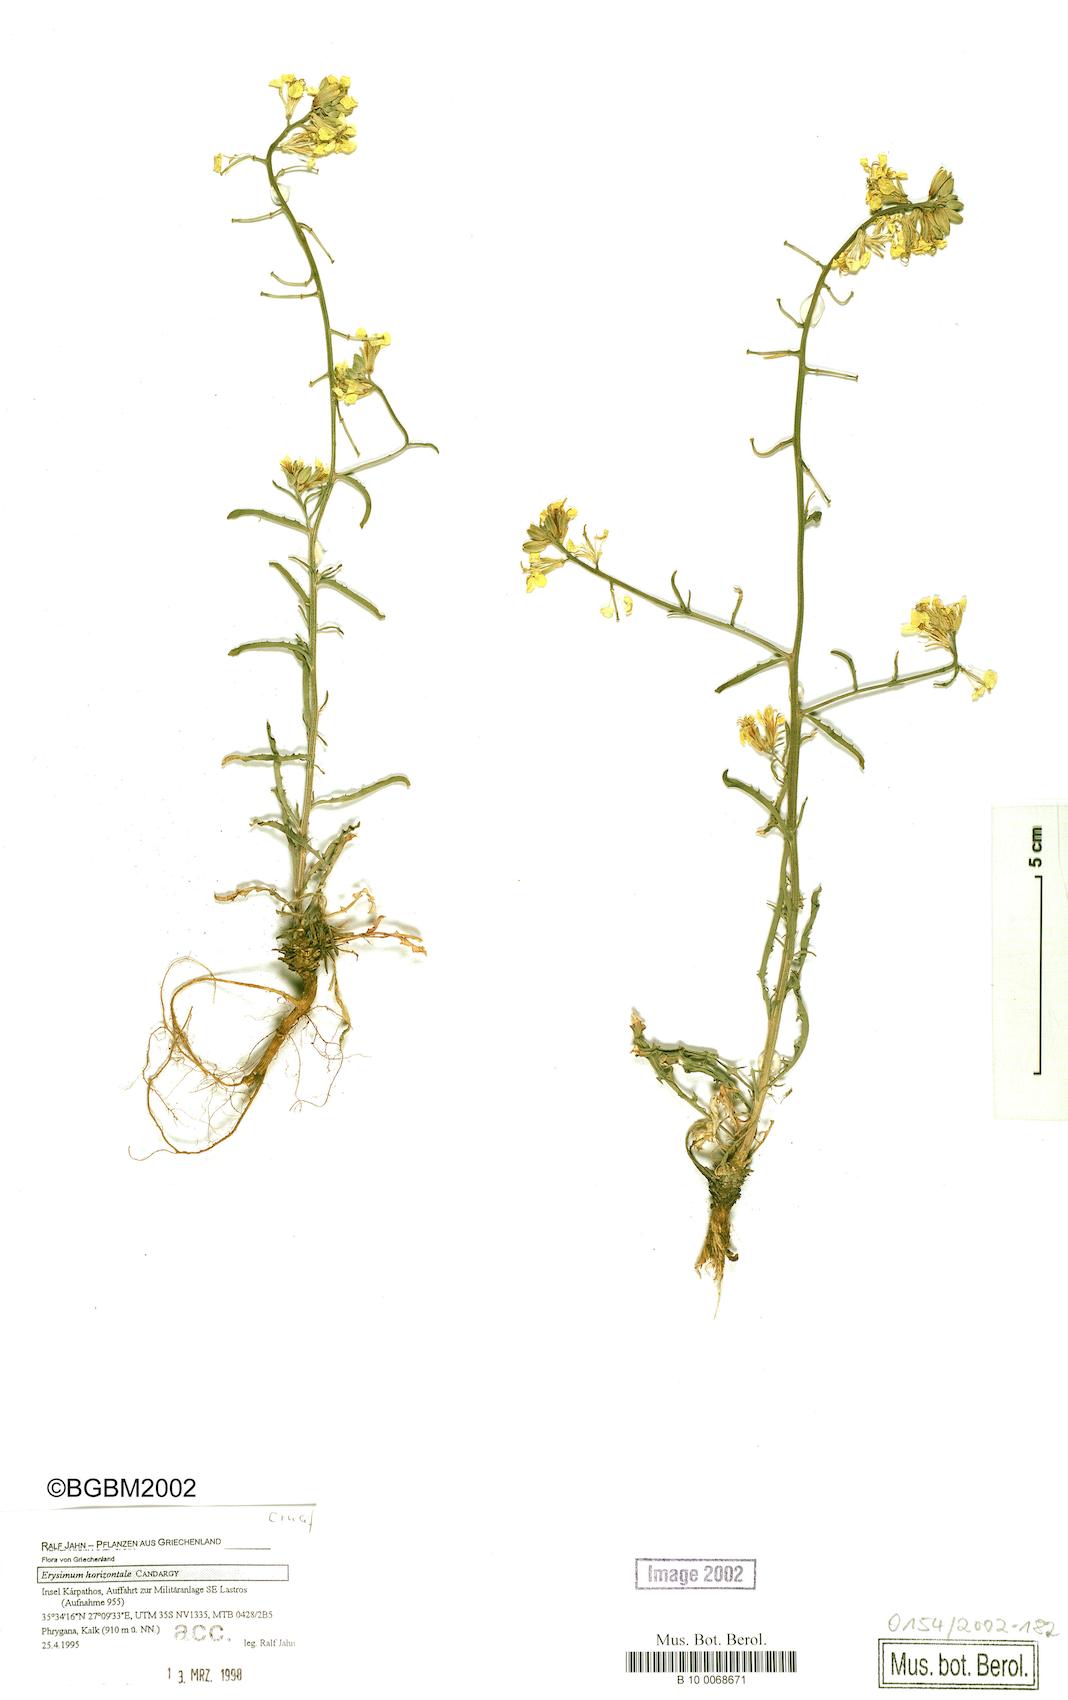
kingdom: Plantae
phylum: Tracheophyta
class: Magnoliopsida
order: Brassicales
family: Brassicaceae
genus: Erysimum
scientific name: Erysimum horizontale
